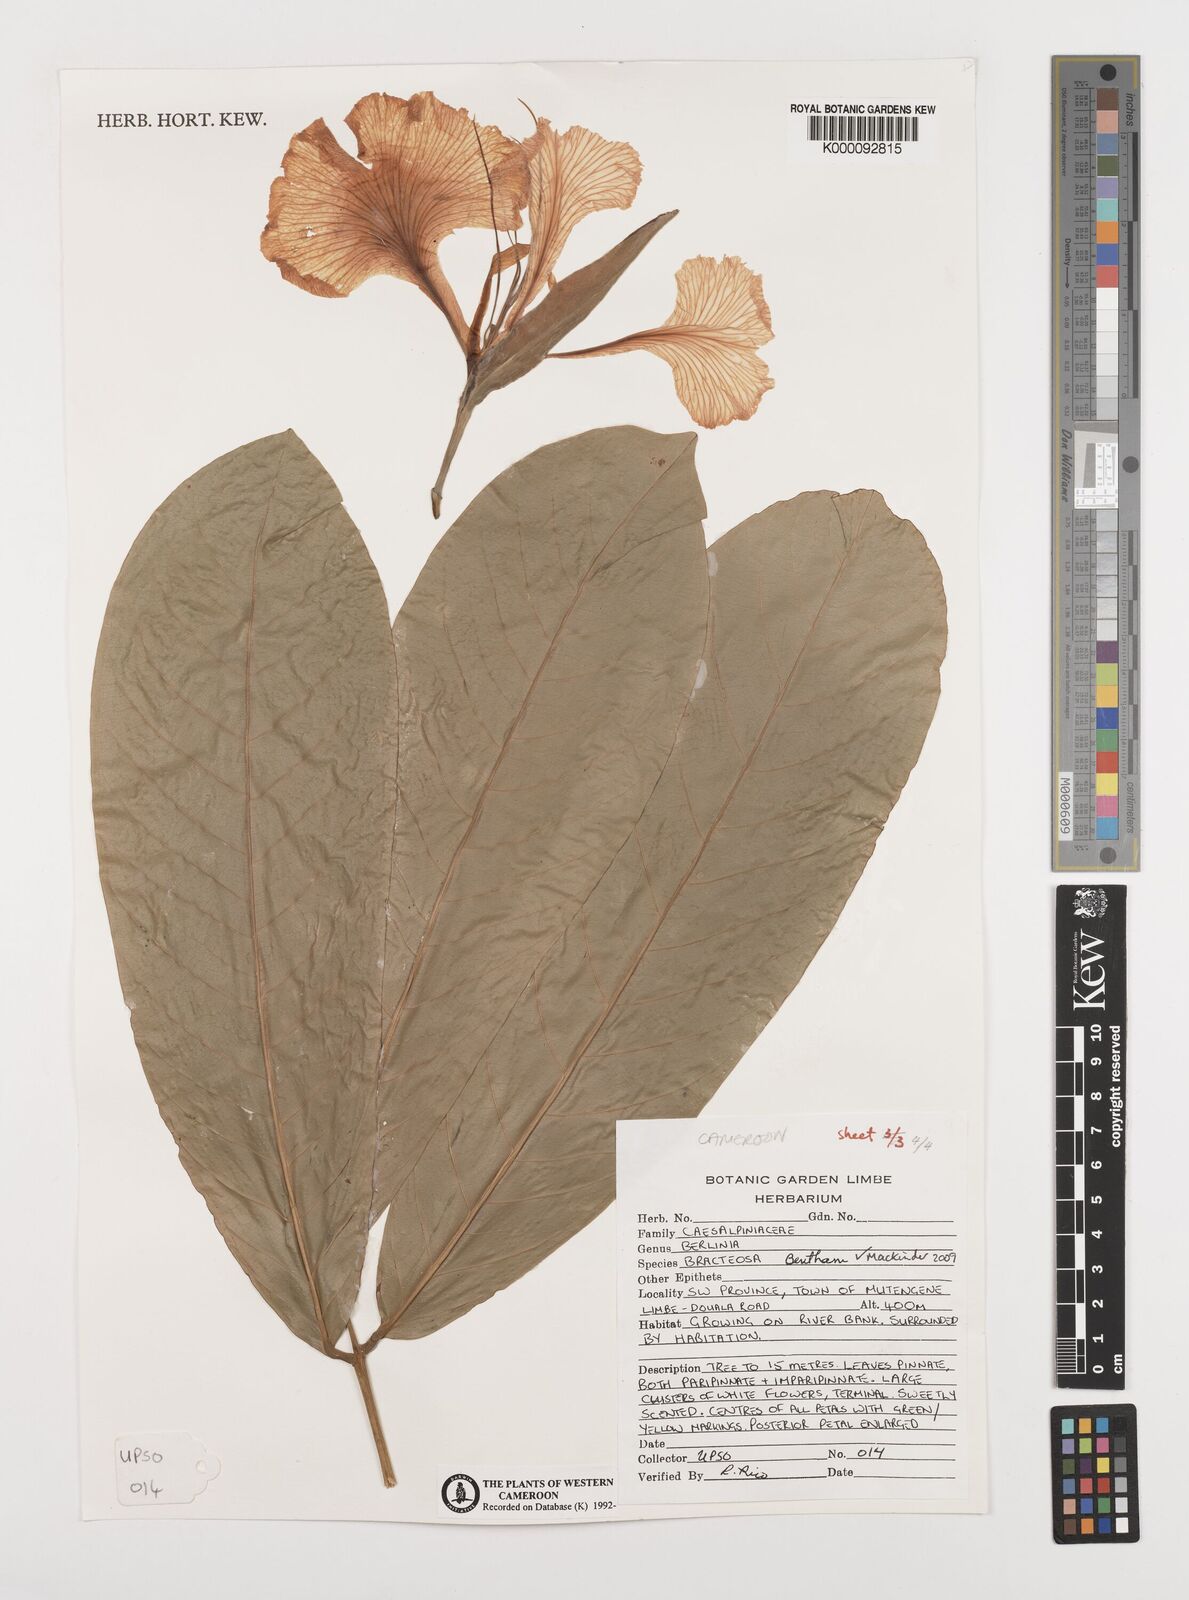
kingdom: Plantae
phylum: Tracheophyta
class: Magnoliopsida
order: Fabales
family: Fabaceae
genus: Berlinia
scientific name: Berlinia bracteosa
